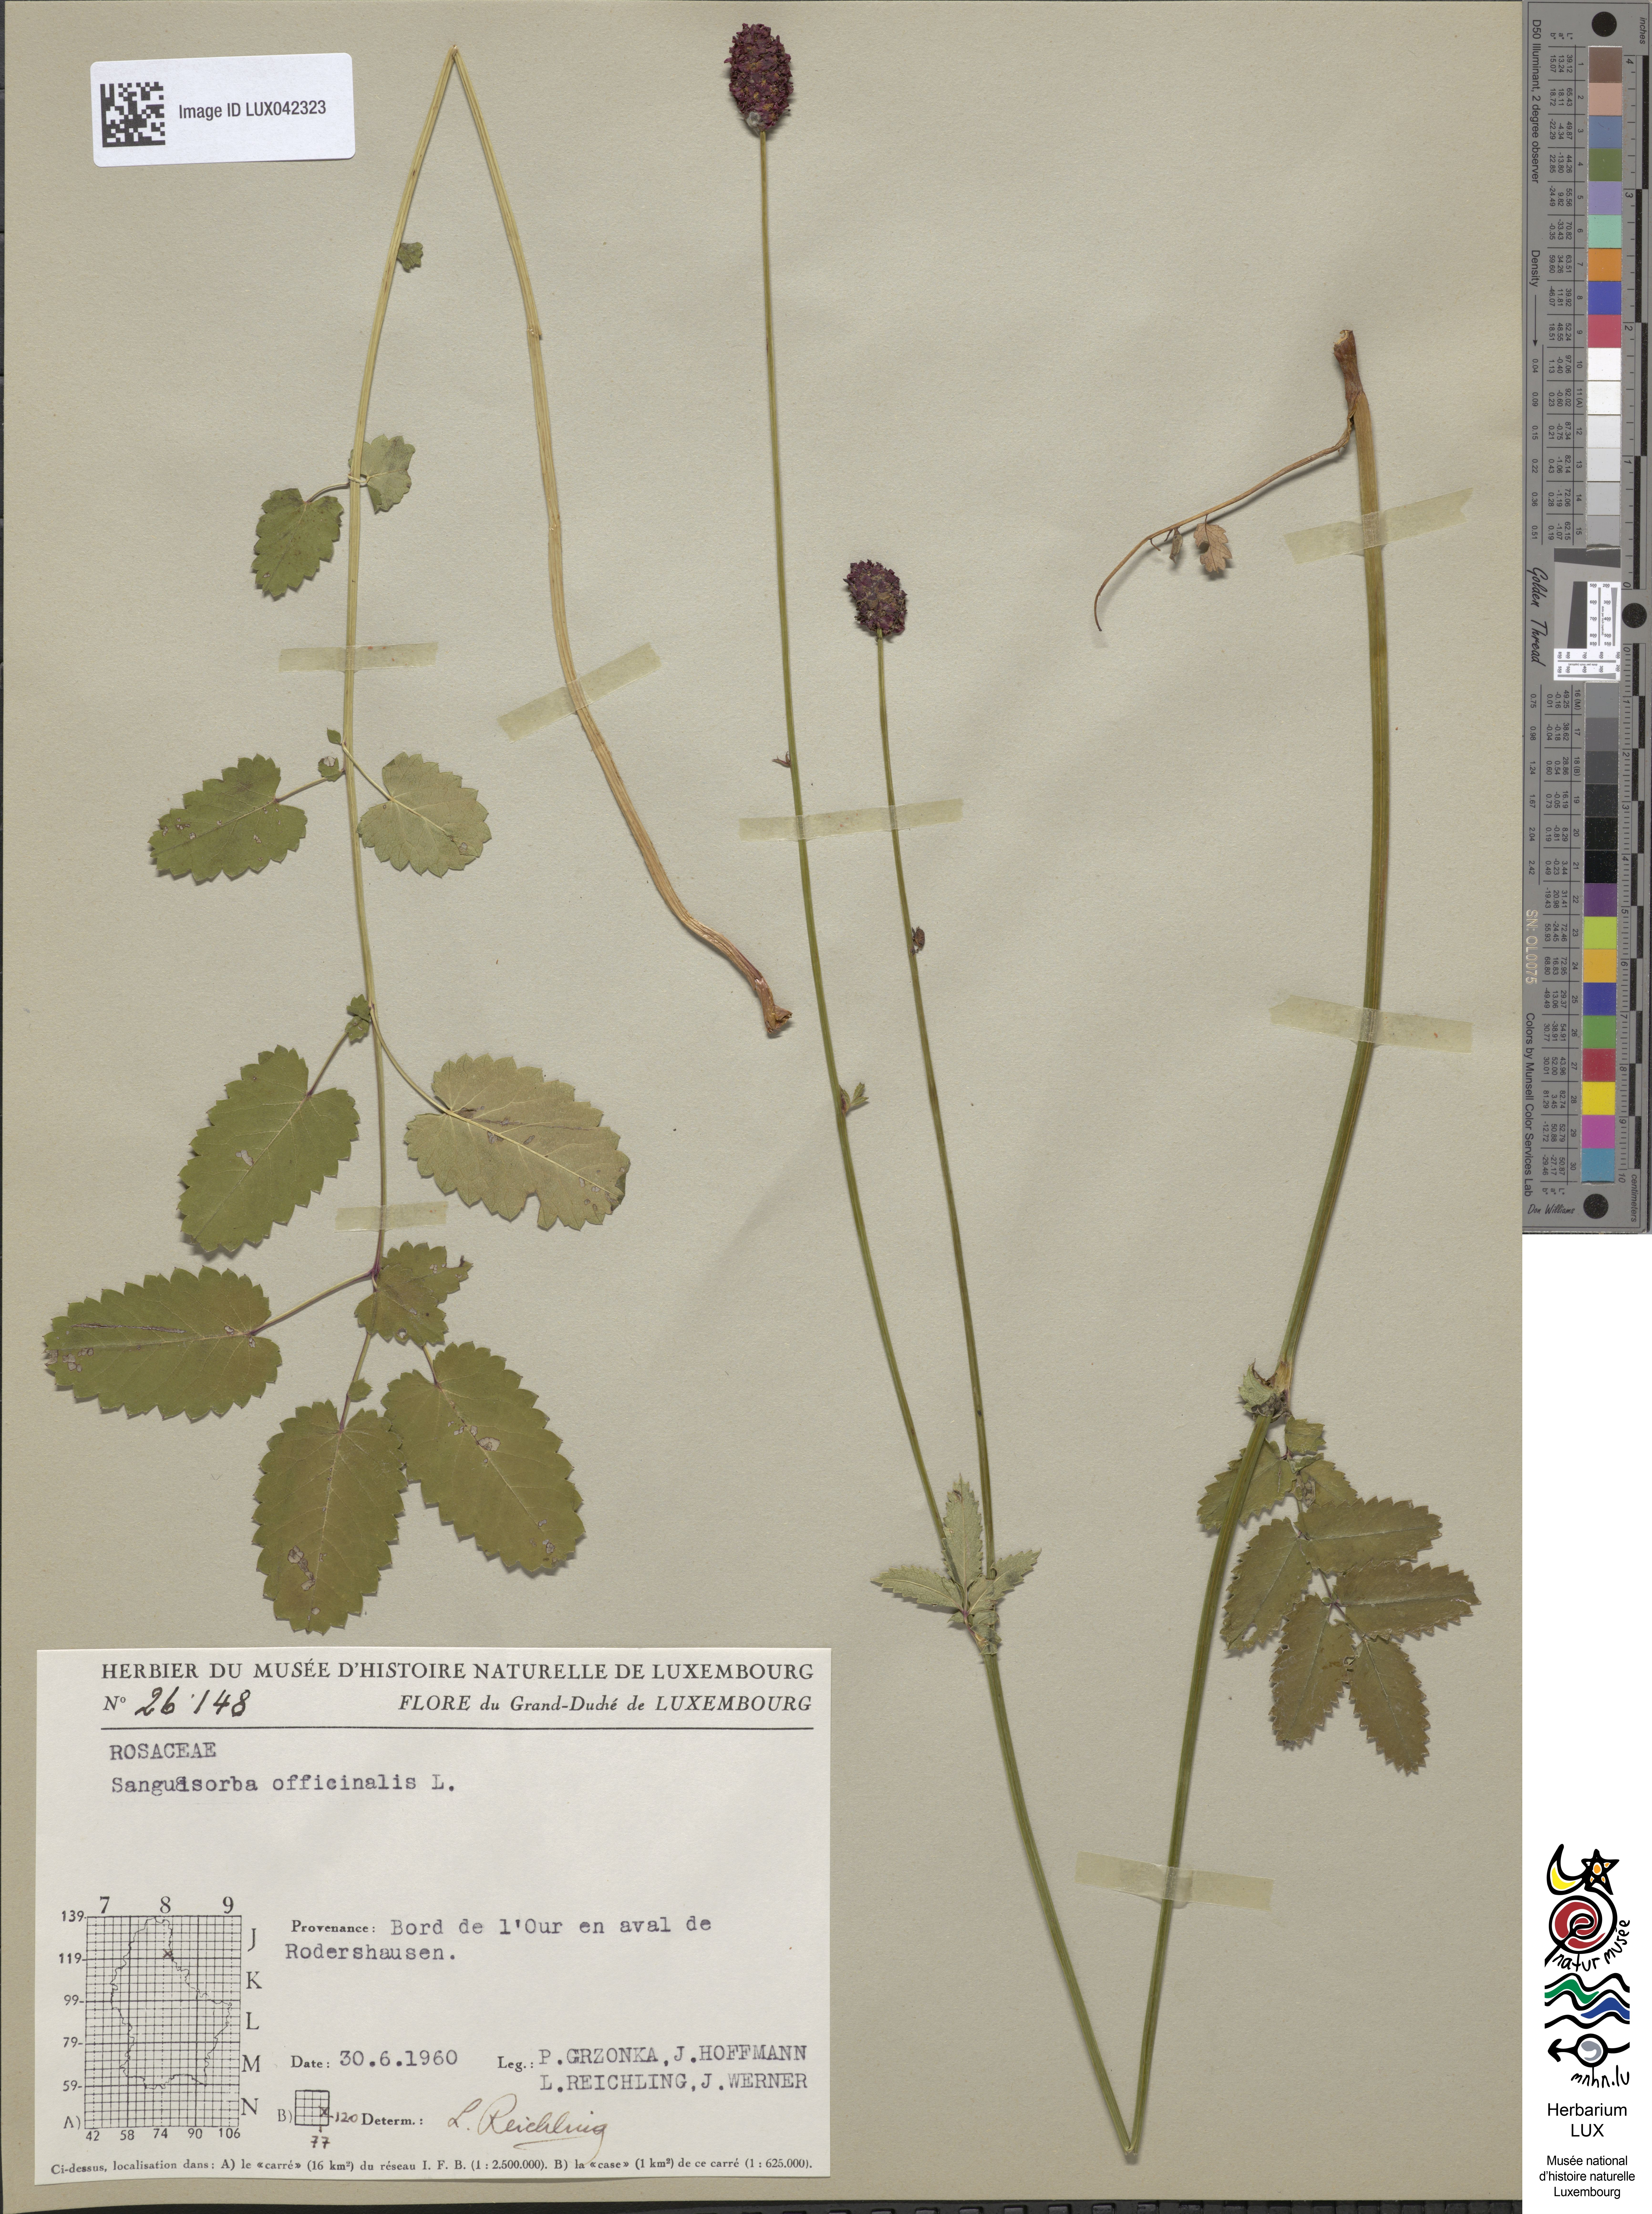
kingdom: Plantae
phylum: Tracheophyta
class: Magnoliopsida
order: Rosales
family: Rosaceae
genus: Sanguisorba
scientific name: Sanguisorba officinalis
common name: Great burnet
